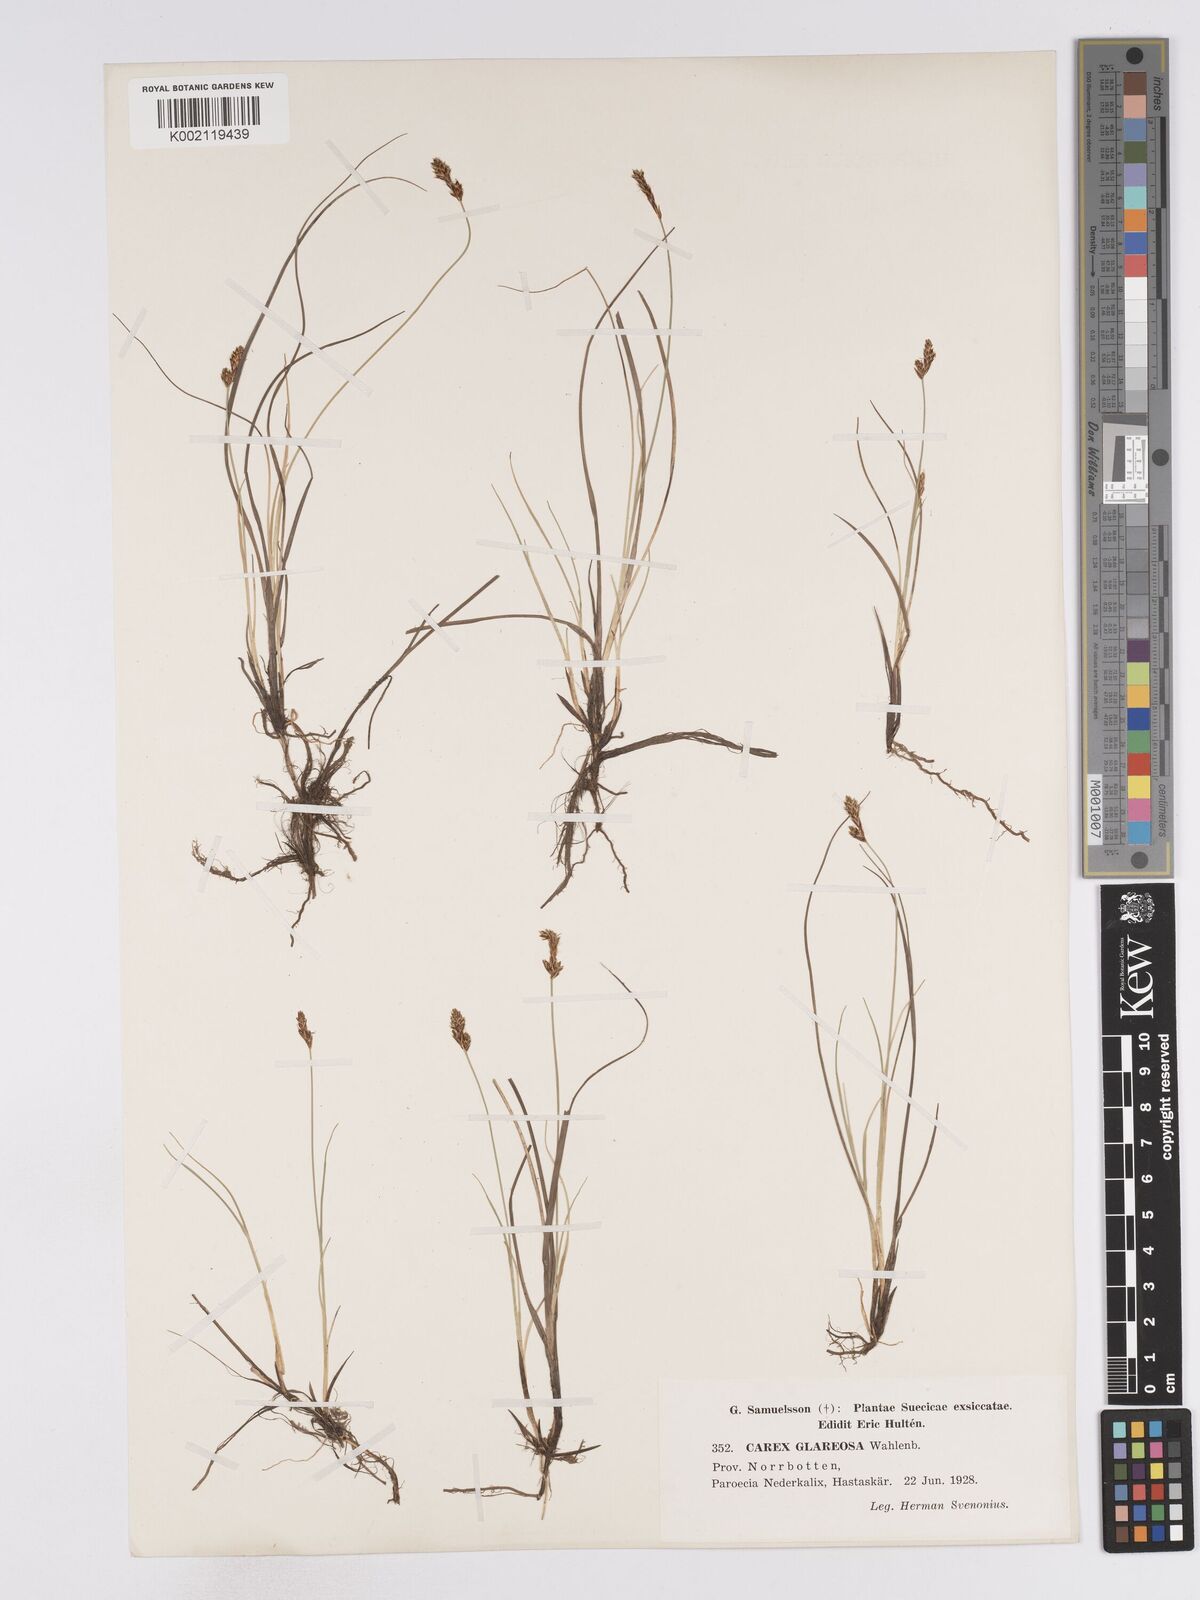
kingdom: Plantae
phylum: Tracheophyta
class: Liliopsida
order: Poales
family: Cyperaceae
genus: Carex
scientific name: Carex glareosa
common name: Clustered sedge
